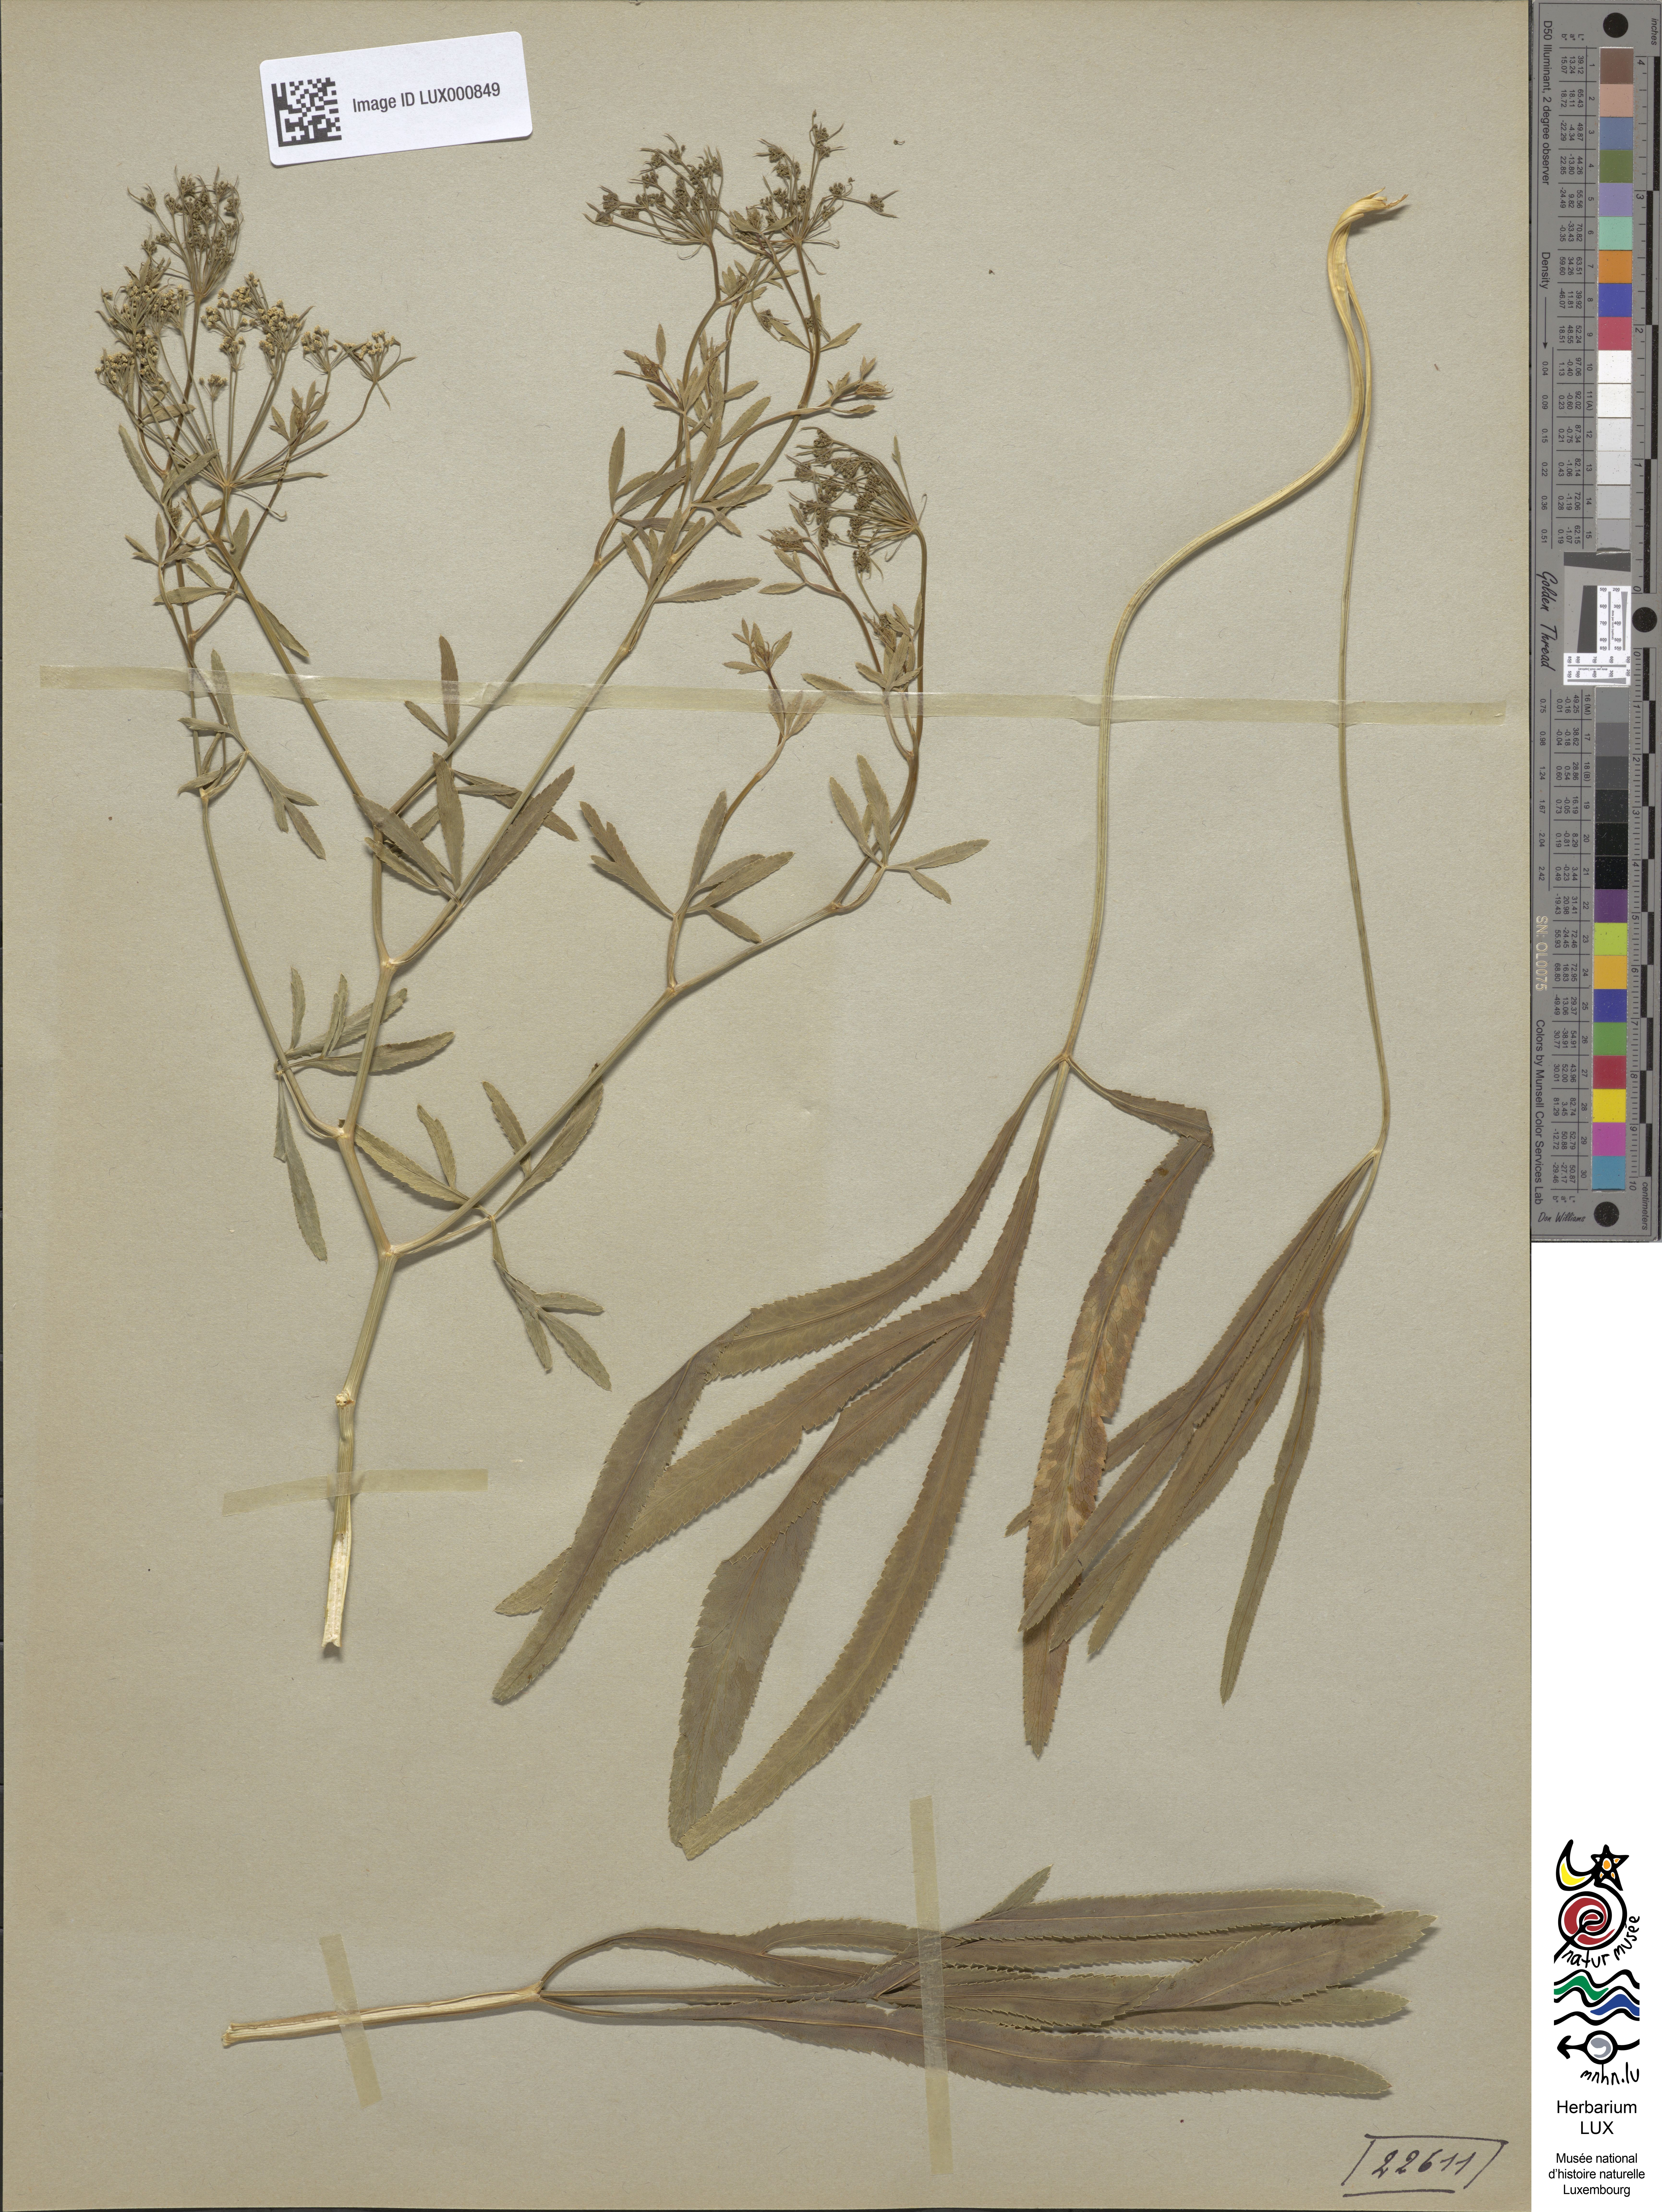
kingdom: Plantae
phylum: Tracheophyta
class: Magnoliopsida
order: Apiales
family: Apiaceae
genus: Falcaria
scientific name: Falcaria vulgaris
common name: Longleaf
